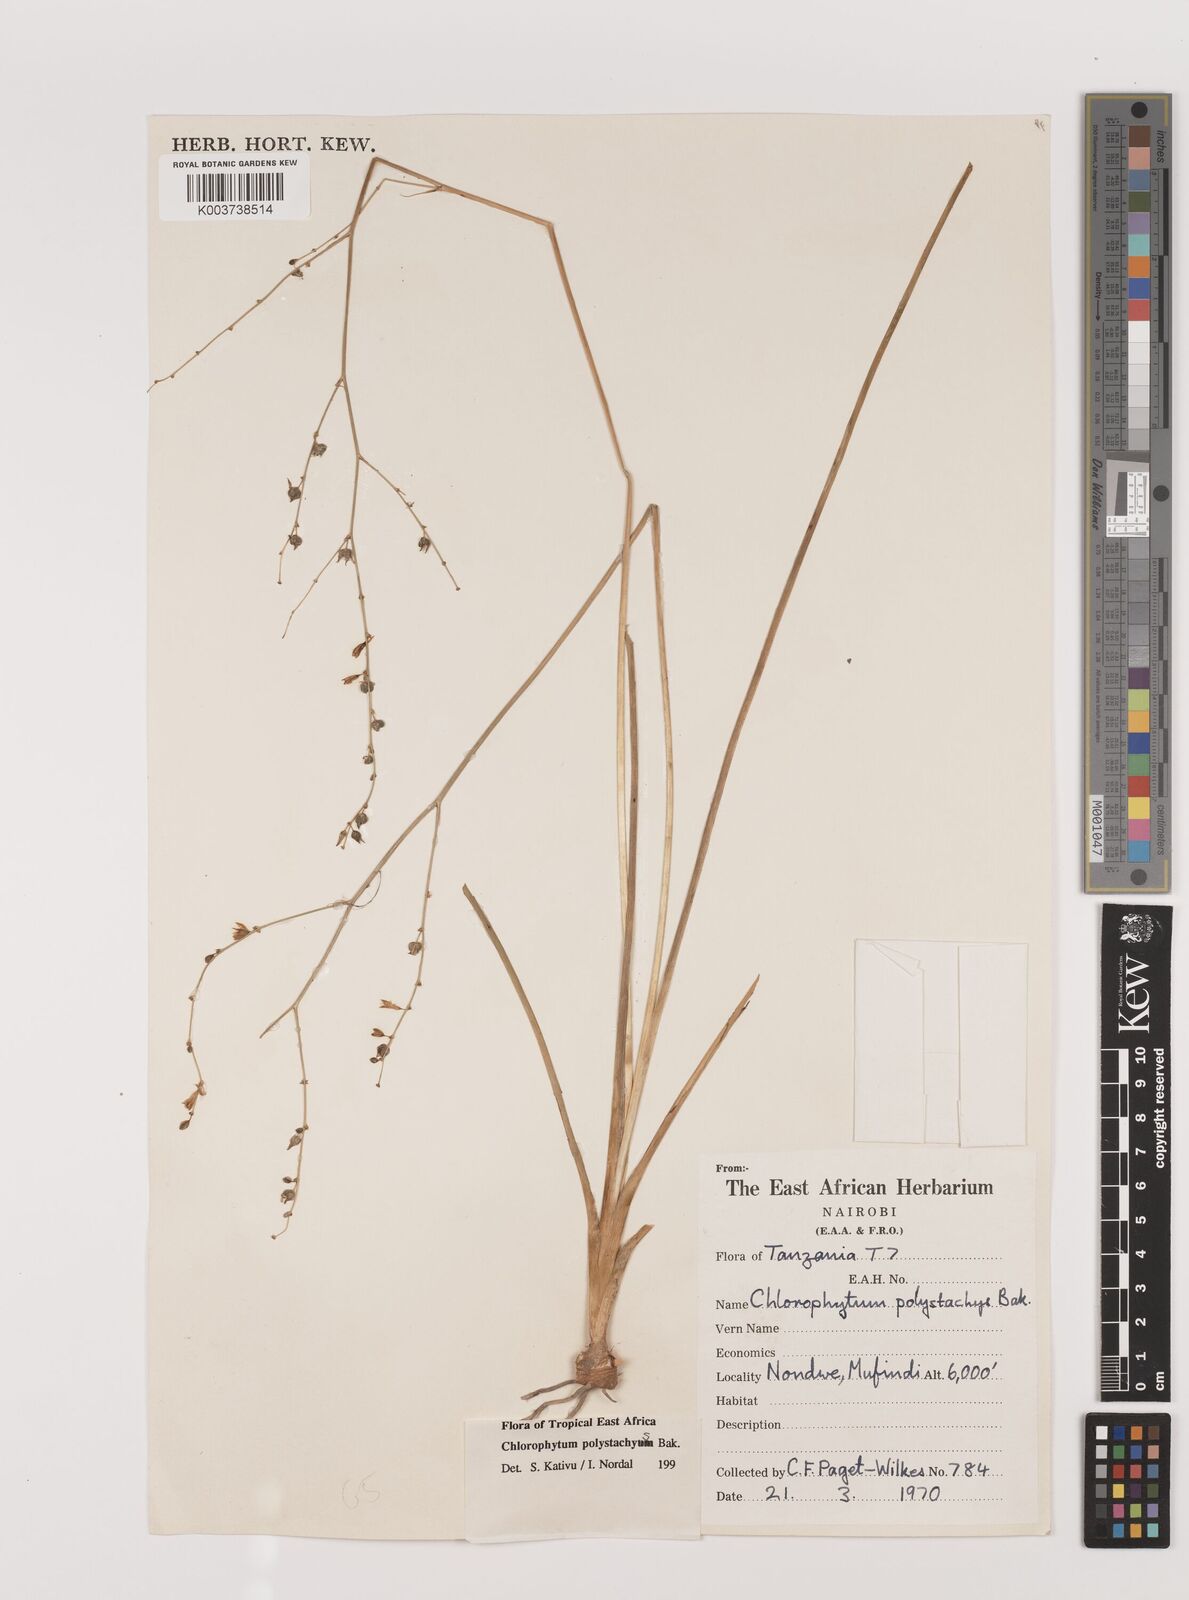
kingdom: Plantae
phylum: Tracheophyta
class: Liliopsida
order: Asparagales
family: Asparagaceae
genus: Chlorophytum
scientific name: Chlorophytum polystachys
